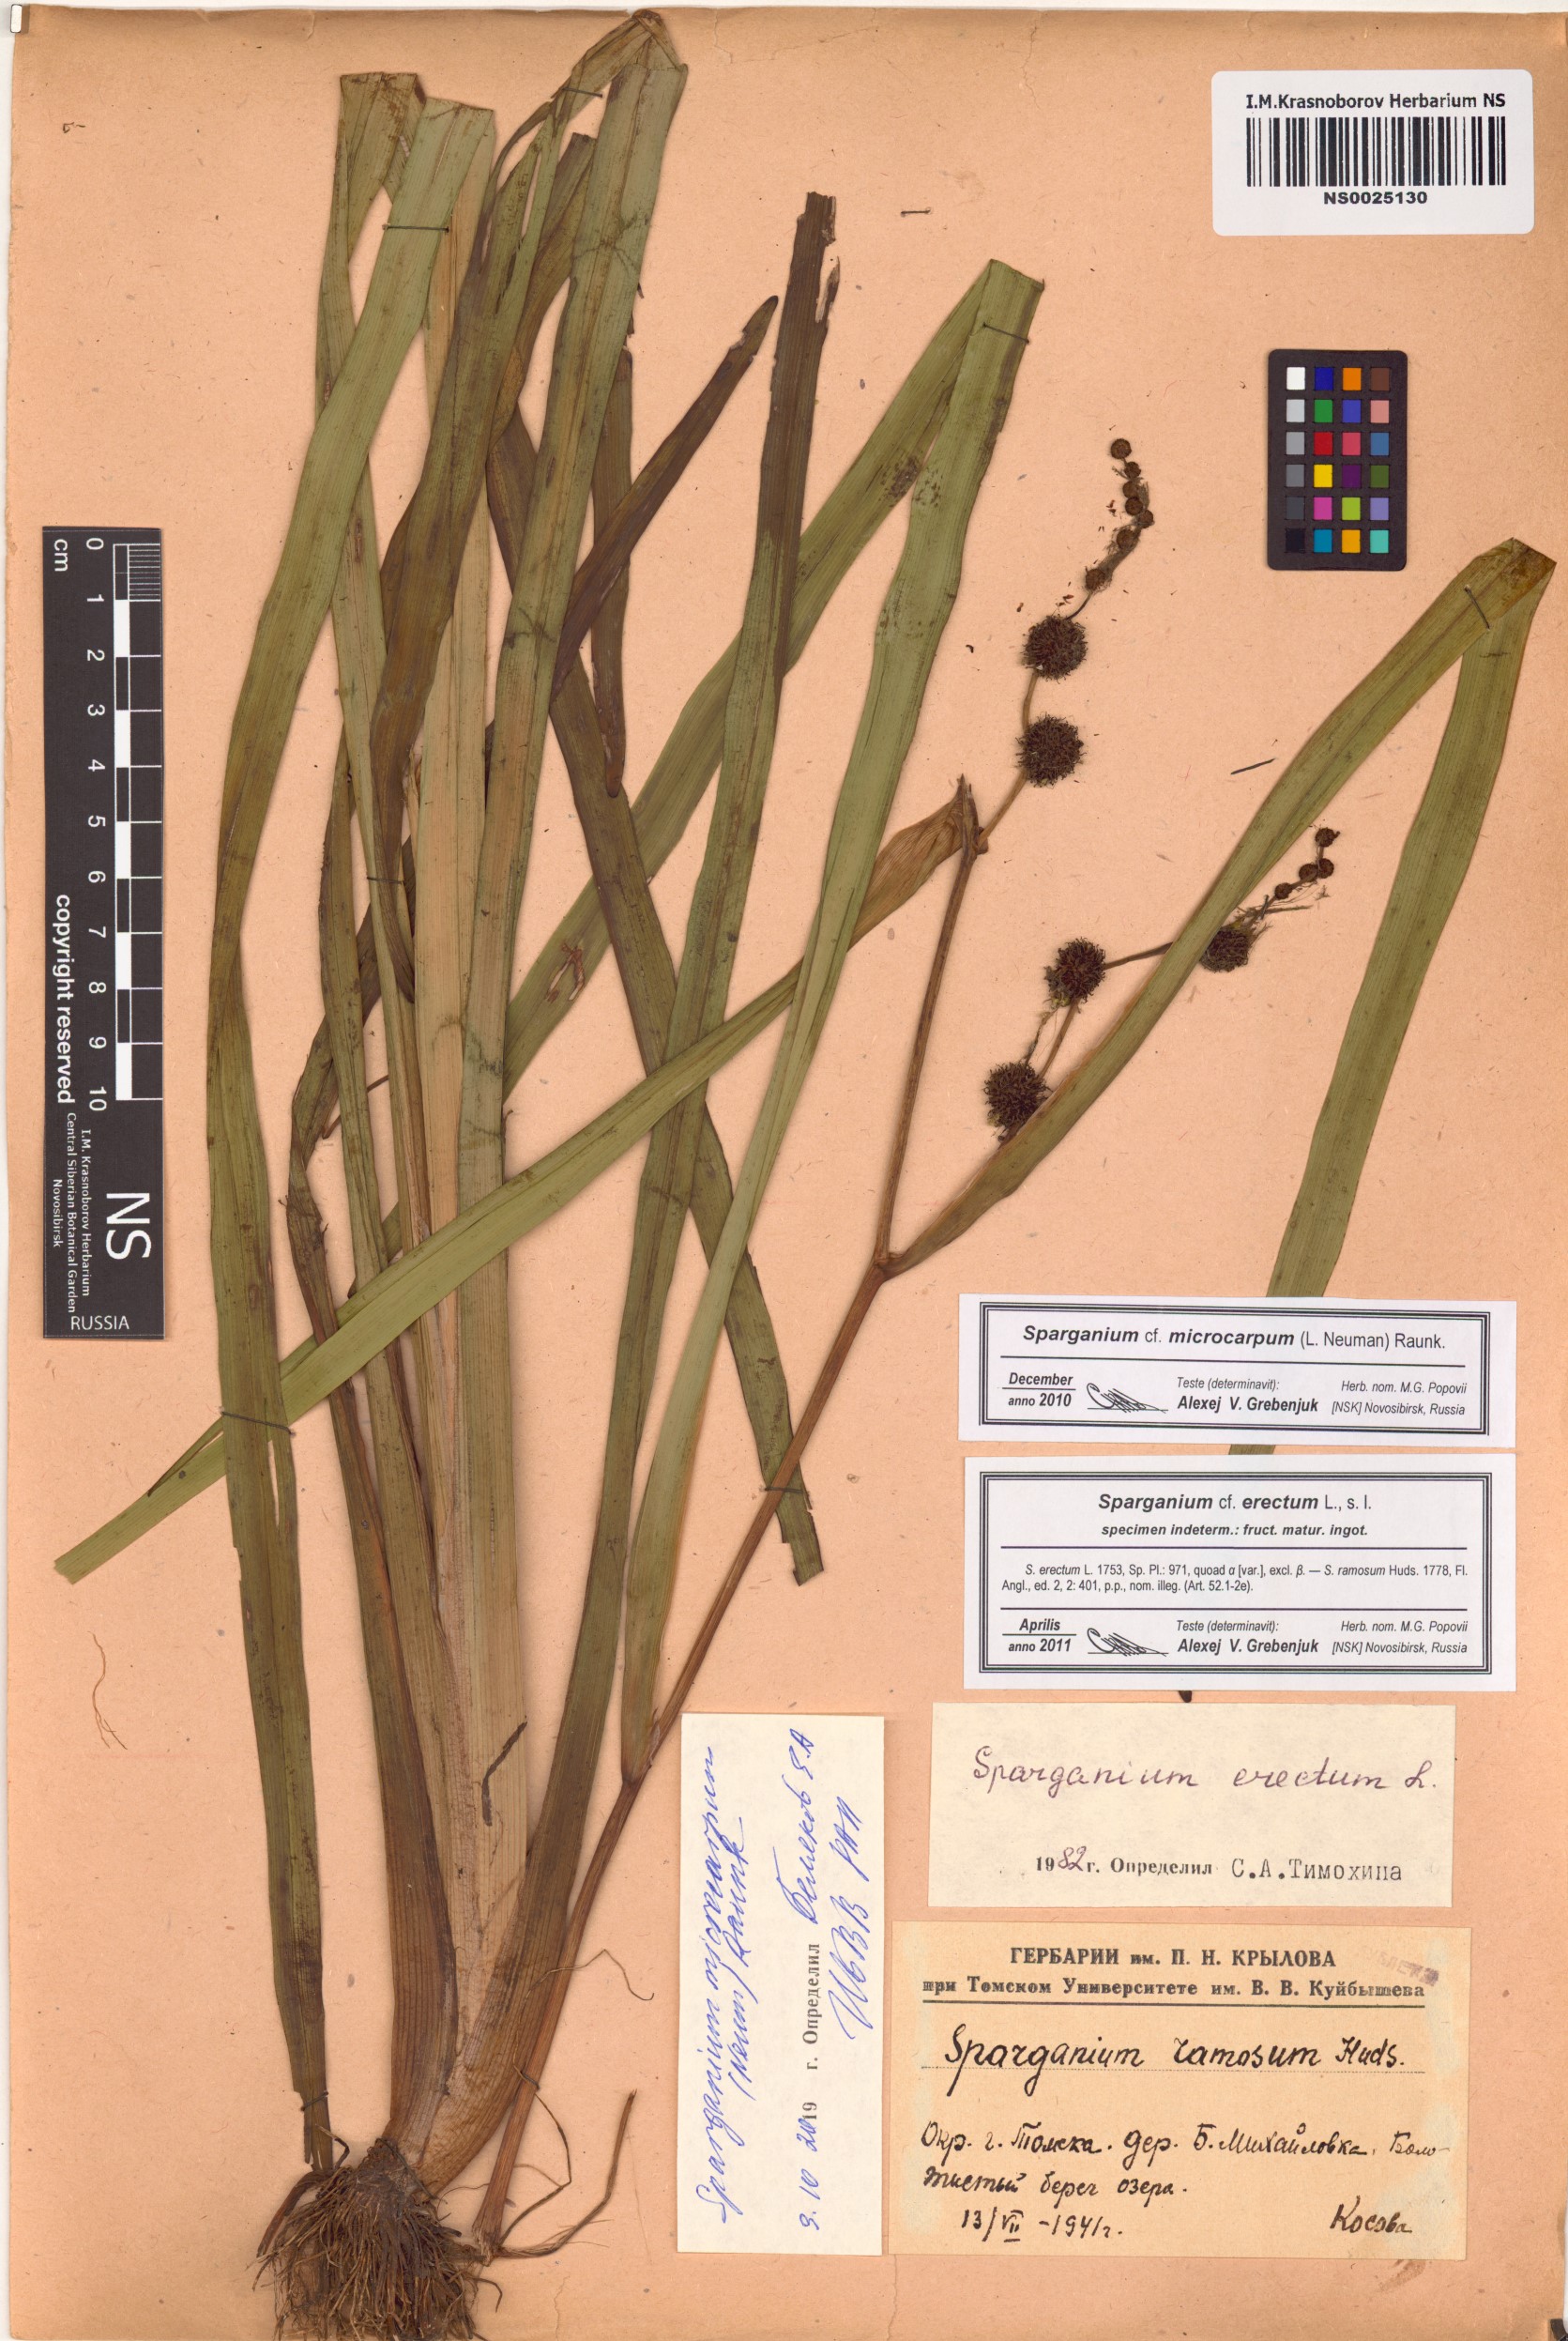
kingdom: Plantae
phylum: Tracheophyta
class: Liliopsida
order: Poales
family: Typhaceae
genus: Sparganium
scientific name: Sparganium erectum
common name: Branched bur-reed
